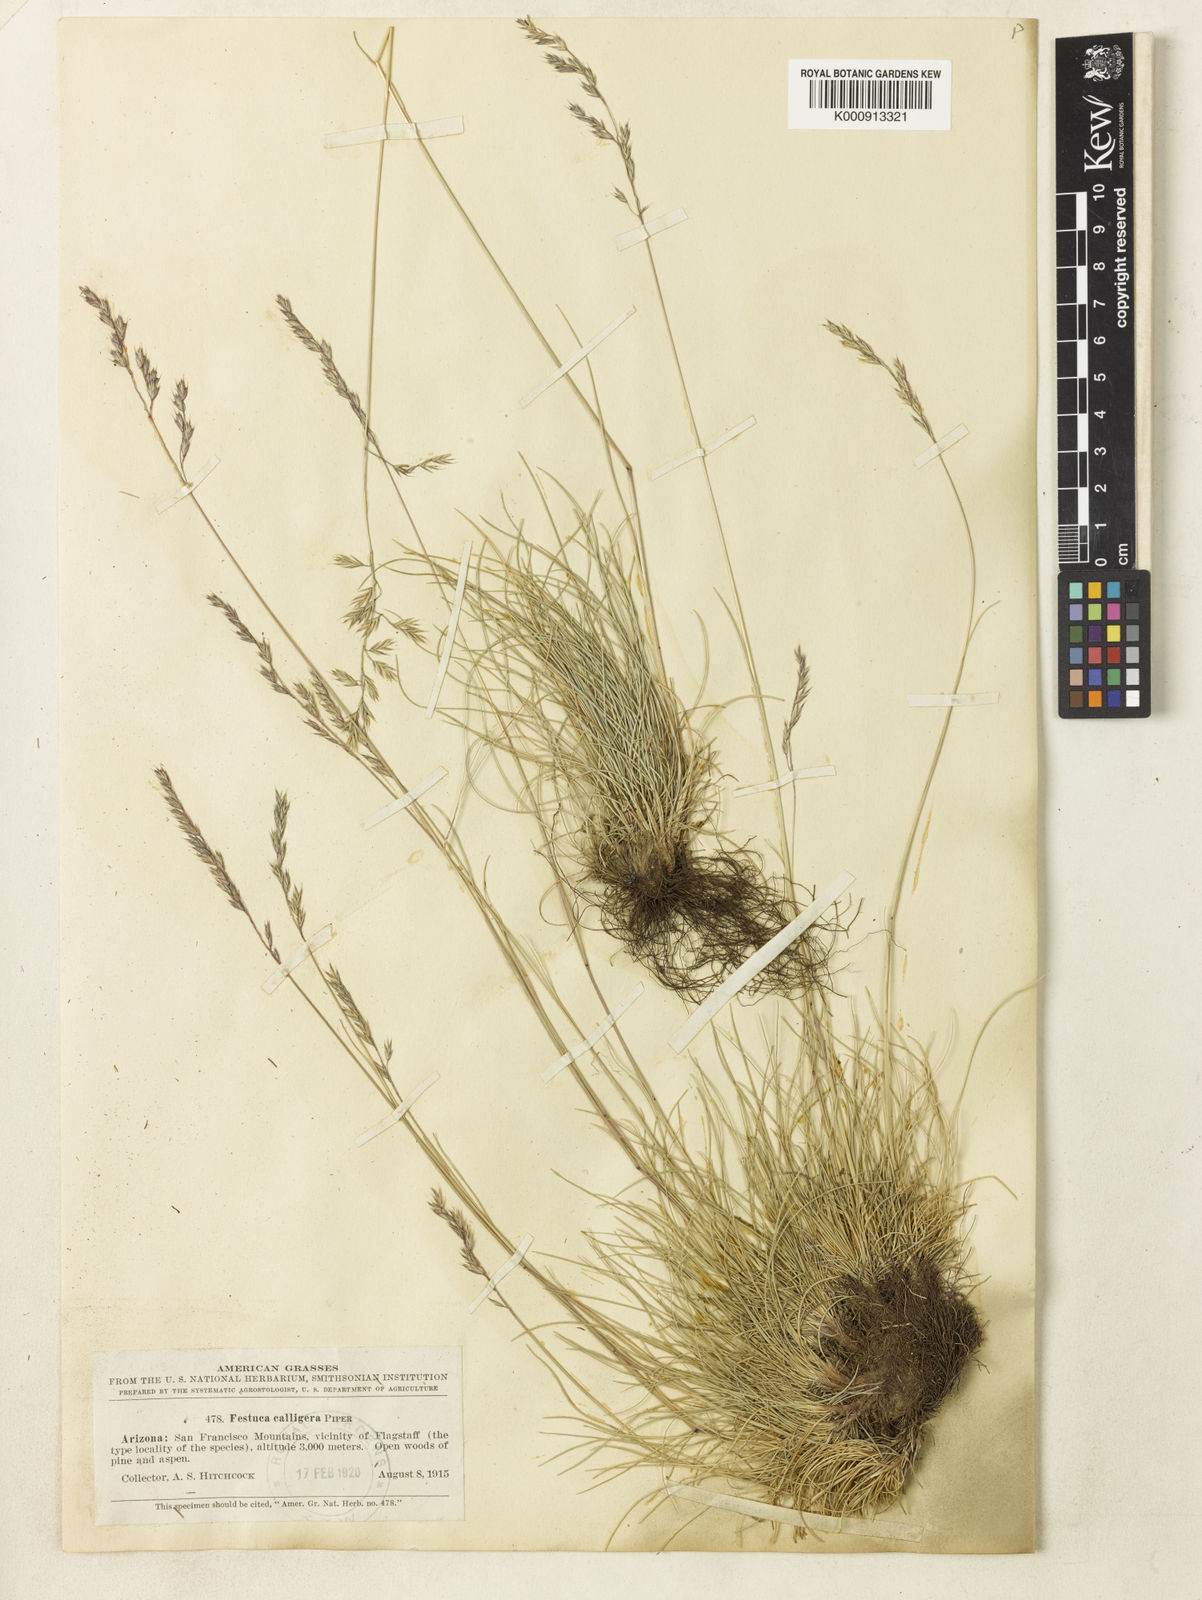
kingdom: Plantae
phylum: Tracheophyta
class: Liliopsida
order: Poales
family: Poaceae
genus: Festuca
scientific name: Festuca calligera
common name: Southwestern fescue
